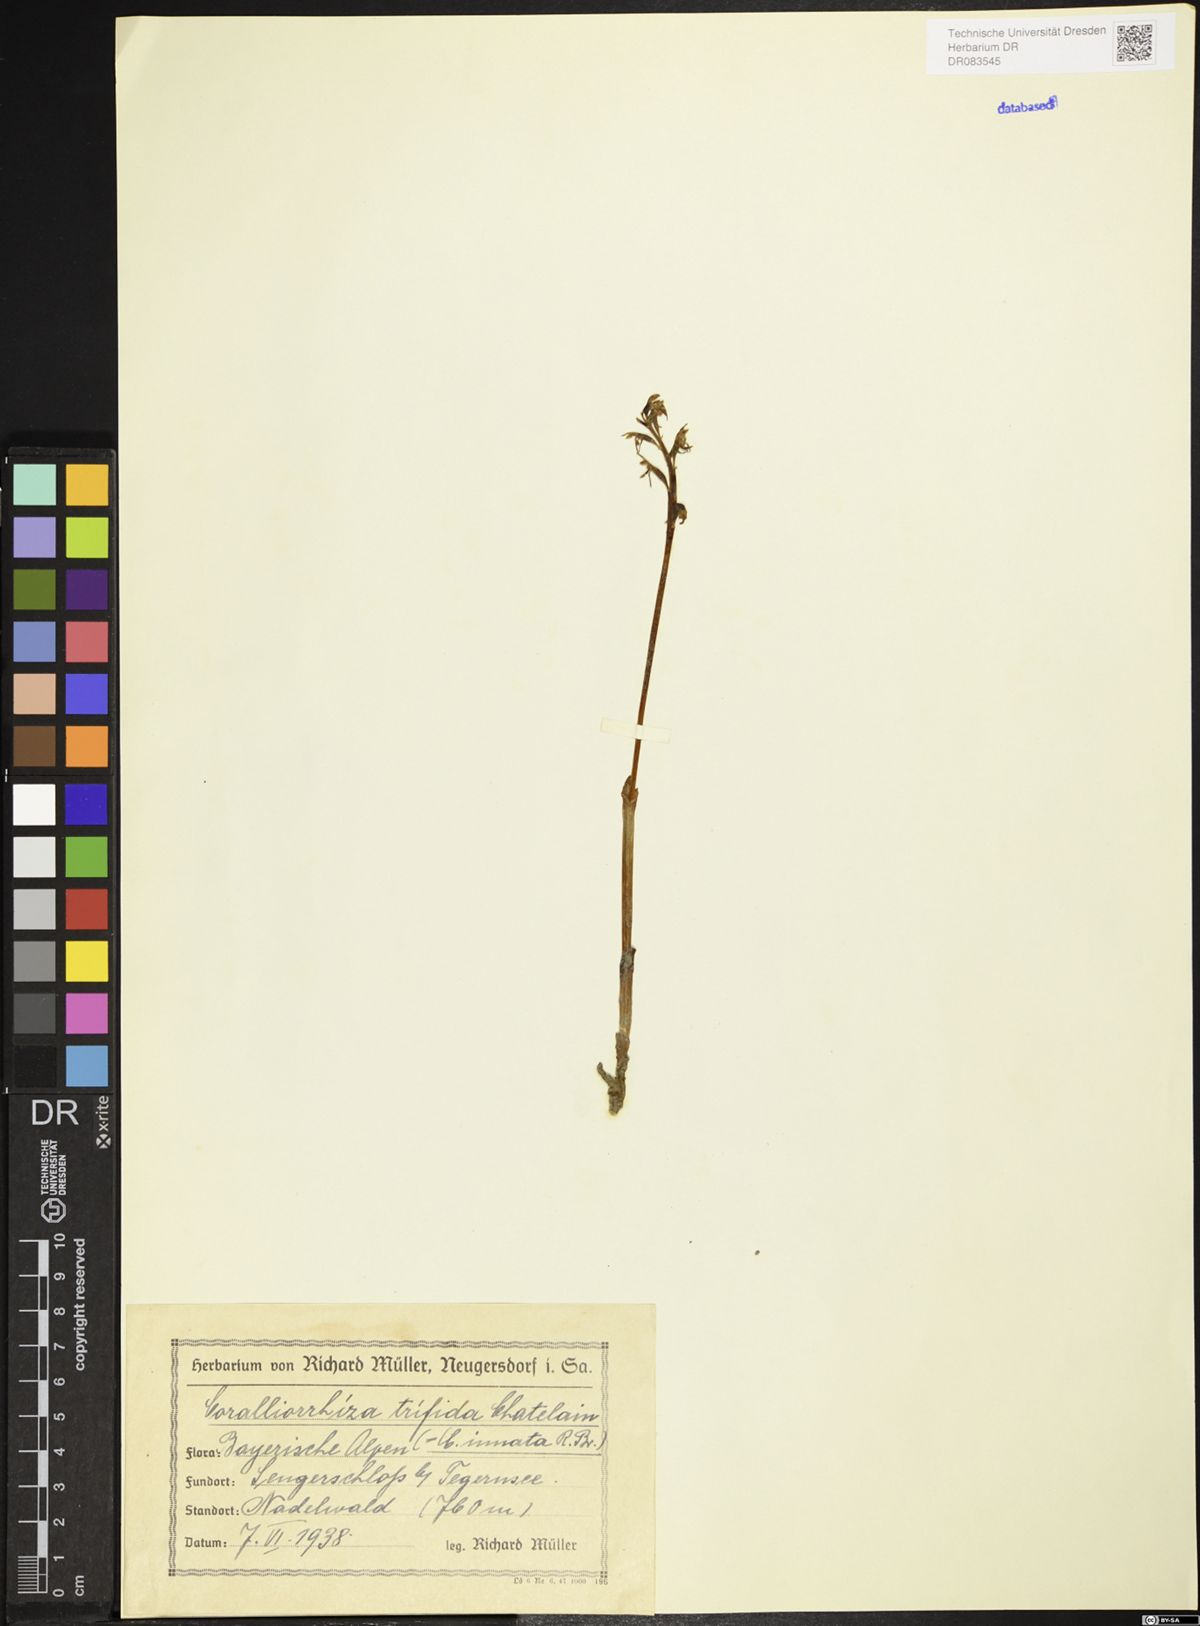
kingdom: Plantae
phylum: Tracheophyta
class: Liliopsida
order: Asparagales
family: Orchidaceae
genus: Corallorhiza
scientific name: Corallorhiza trifida
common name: Yellow coralroot
